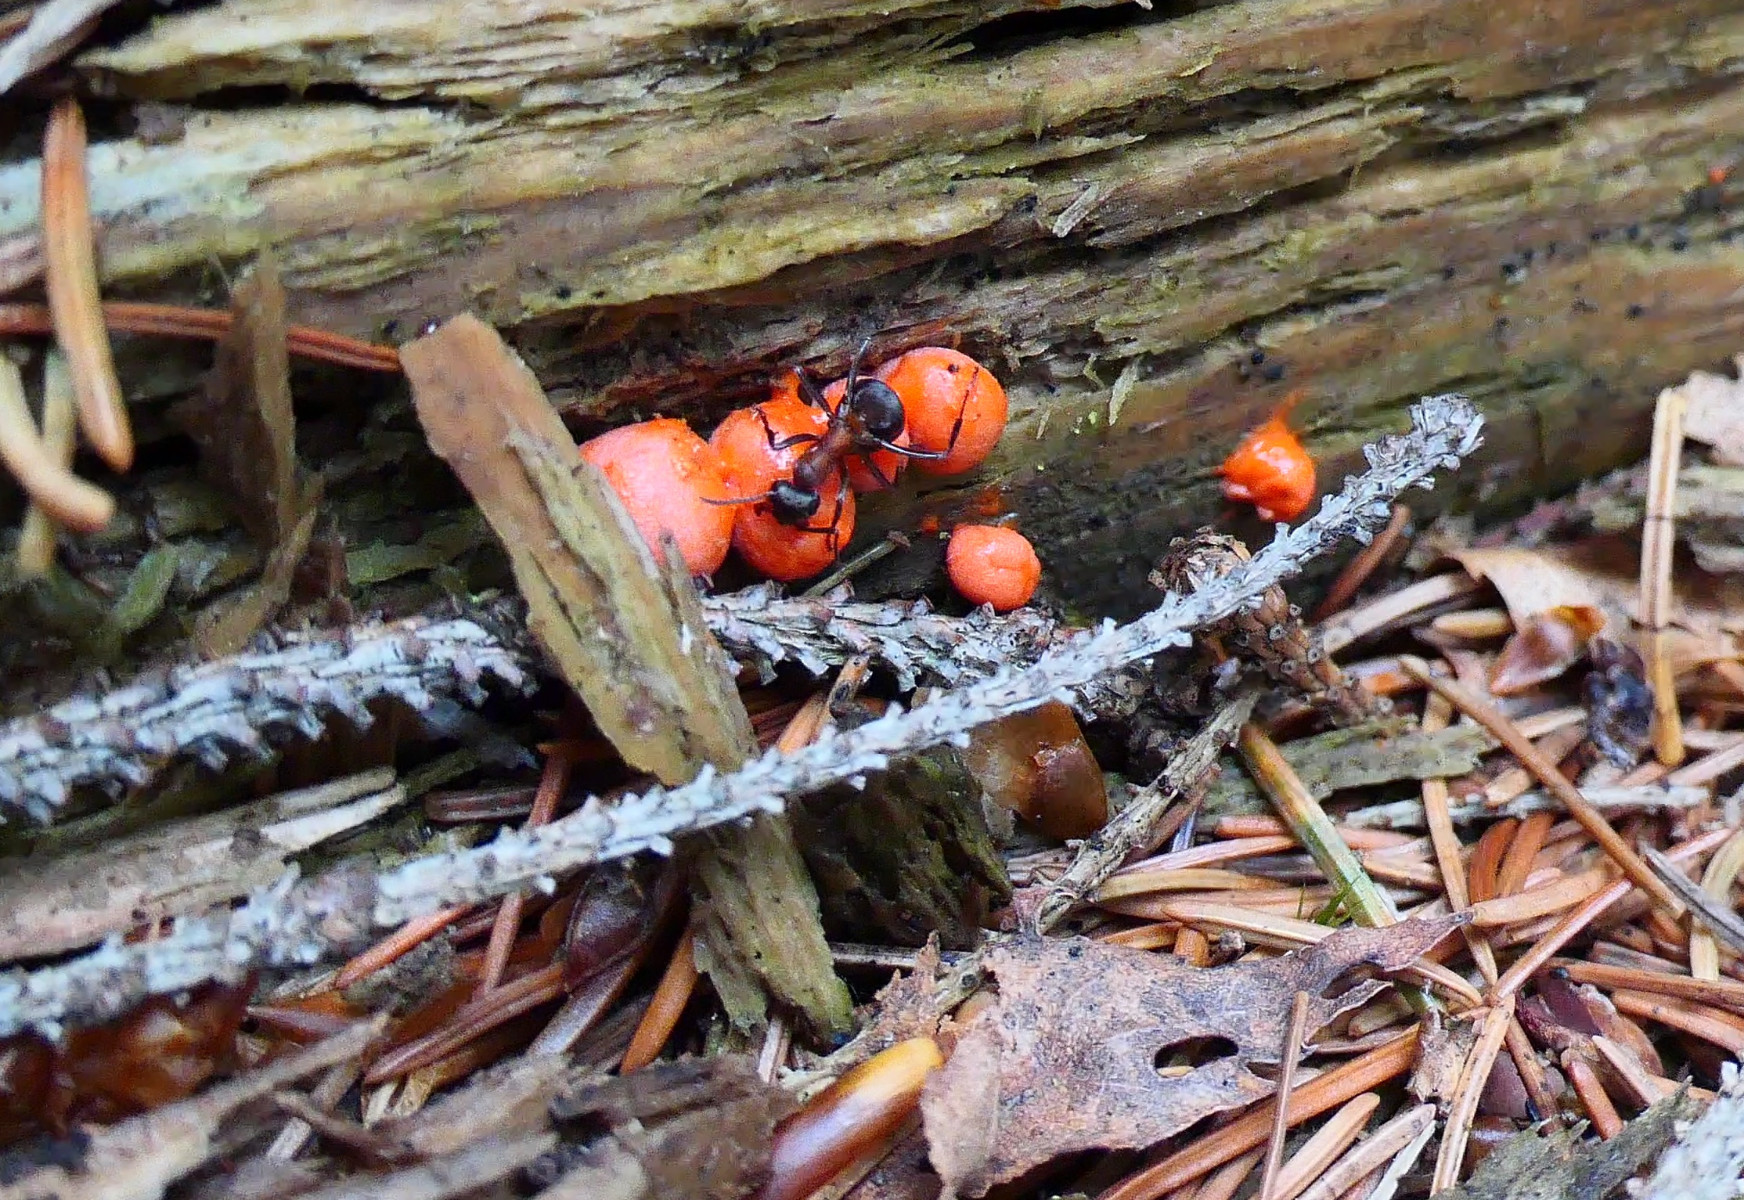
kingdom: Protozoa
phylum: Mycetozoa
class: Myxomycetes
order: Cribrariales
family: Tubiferaceae
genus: Lycogala
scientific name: Lycogala epidendrum
